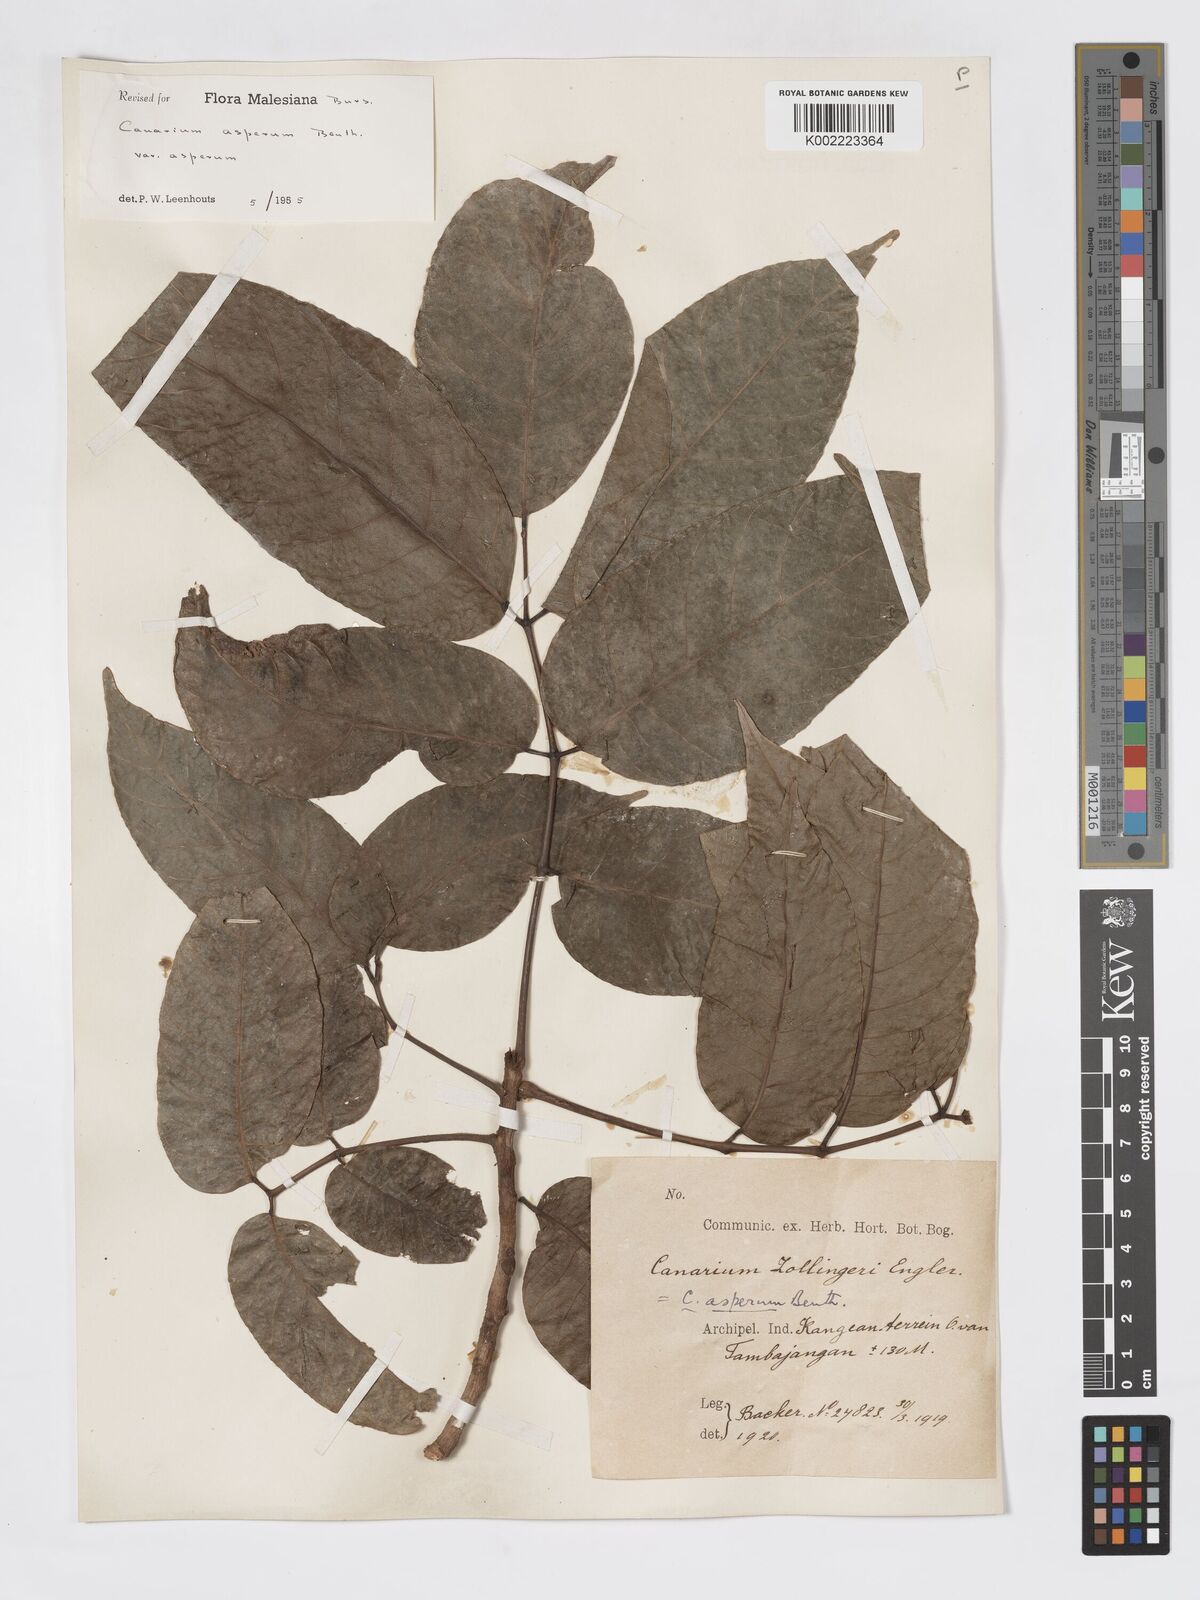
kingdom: Plantae
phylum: Tracheophyta
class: Magnoliopsida
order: Sapindales
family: Burseraceae
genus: Canarium
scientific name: Canarium asperum
